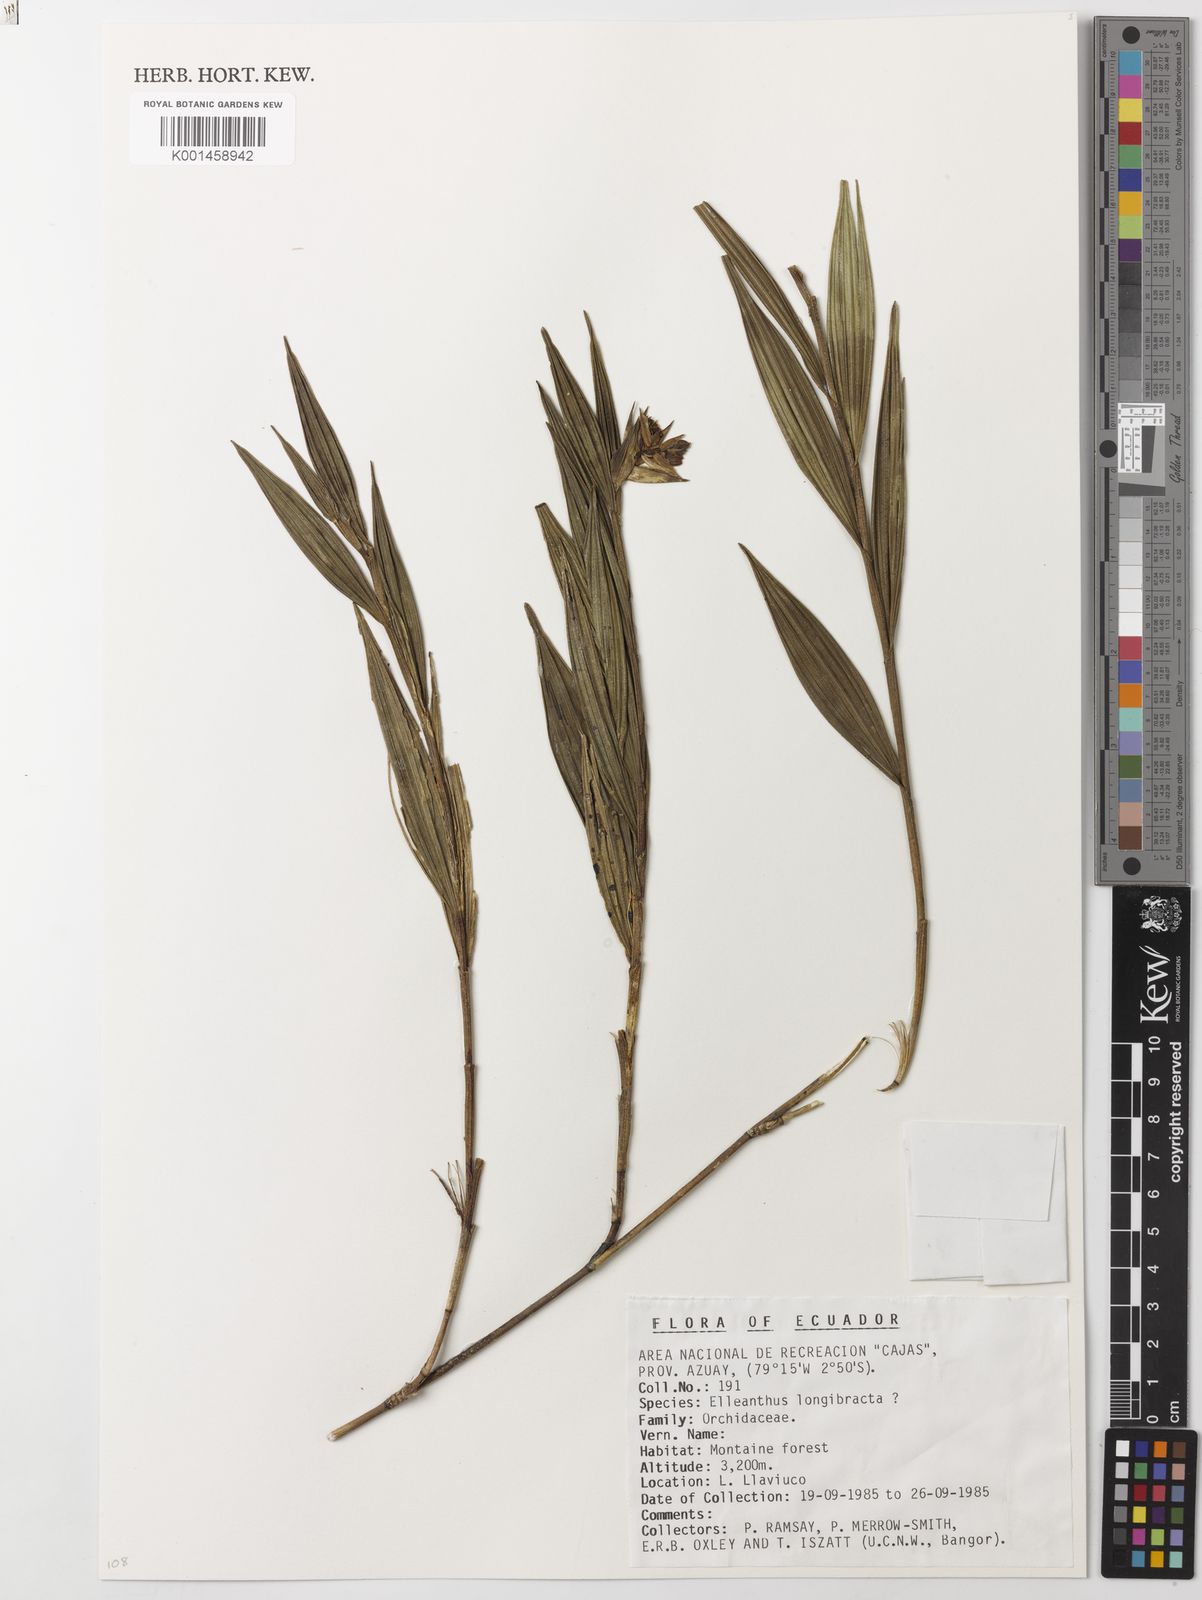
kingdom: Plantae
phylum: Tracheophyta
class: Liliopsida
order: Asparagales
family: Orchidaceae
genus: Elleanthus
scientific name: Elleanthus
